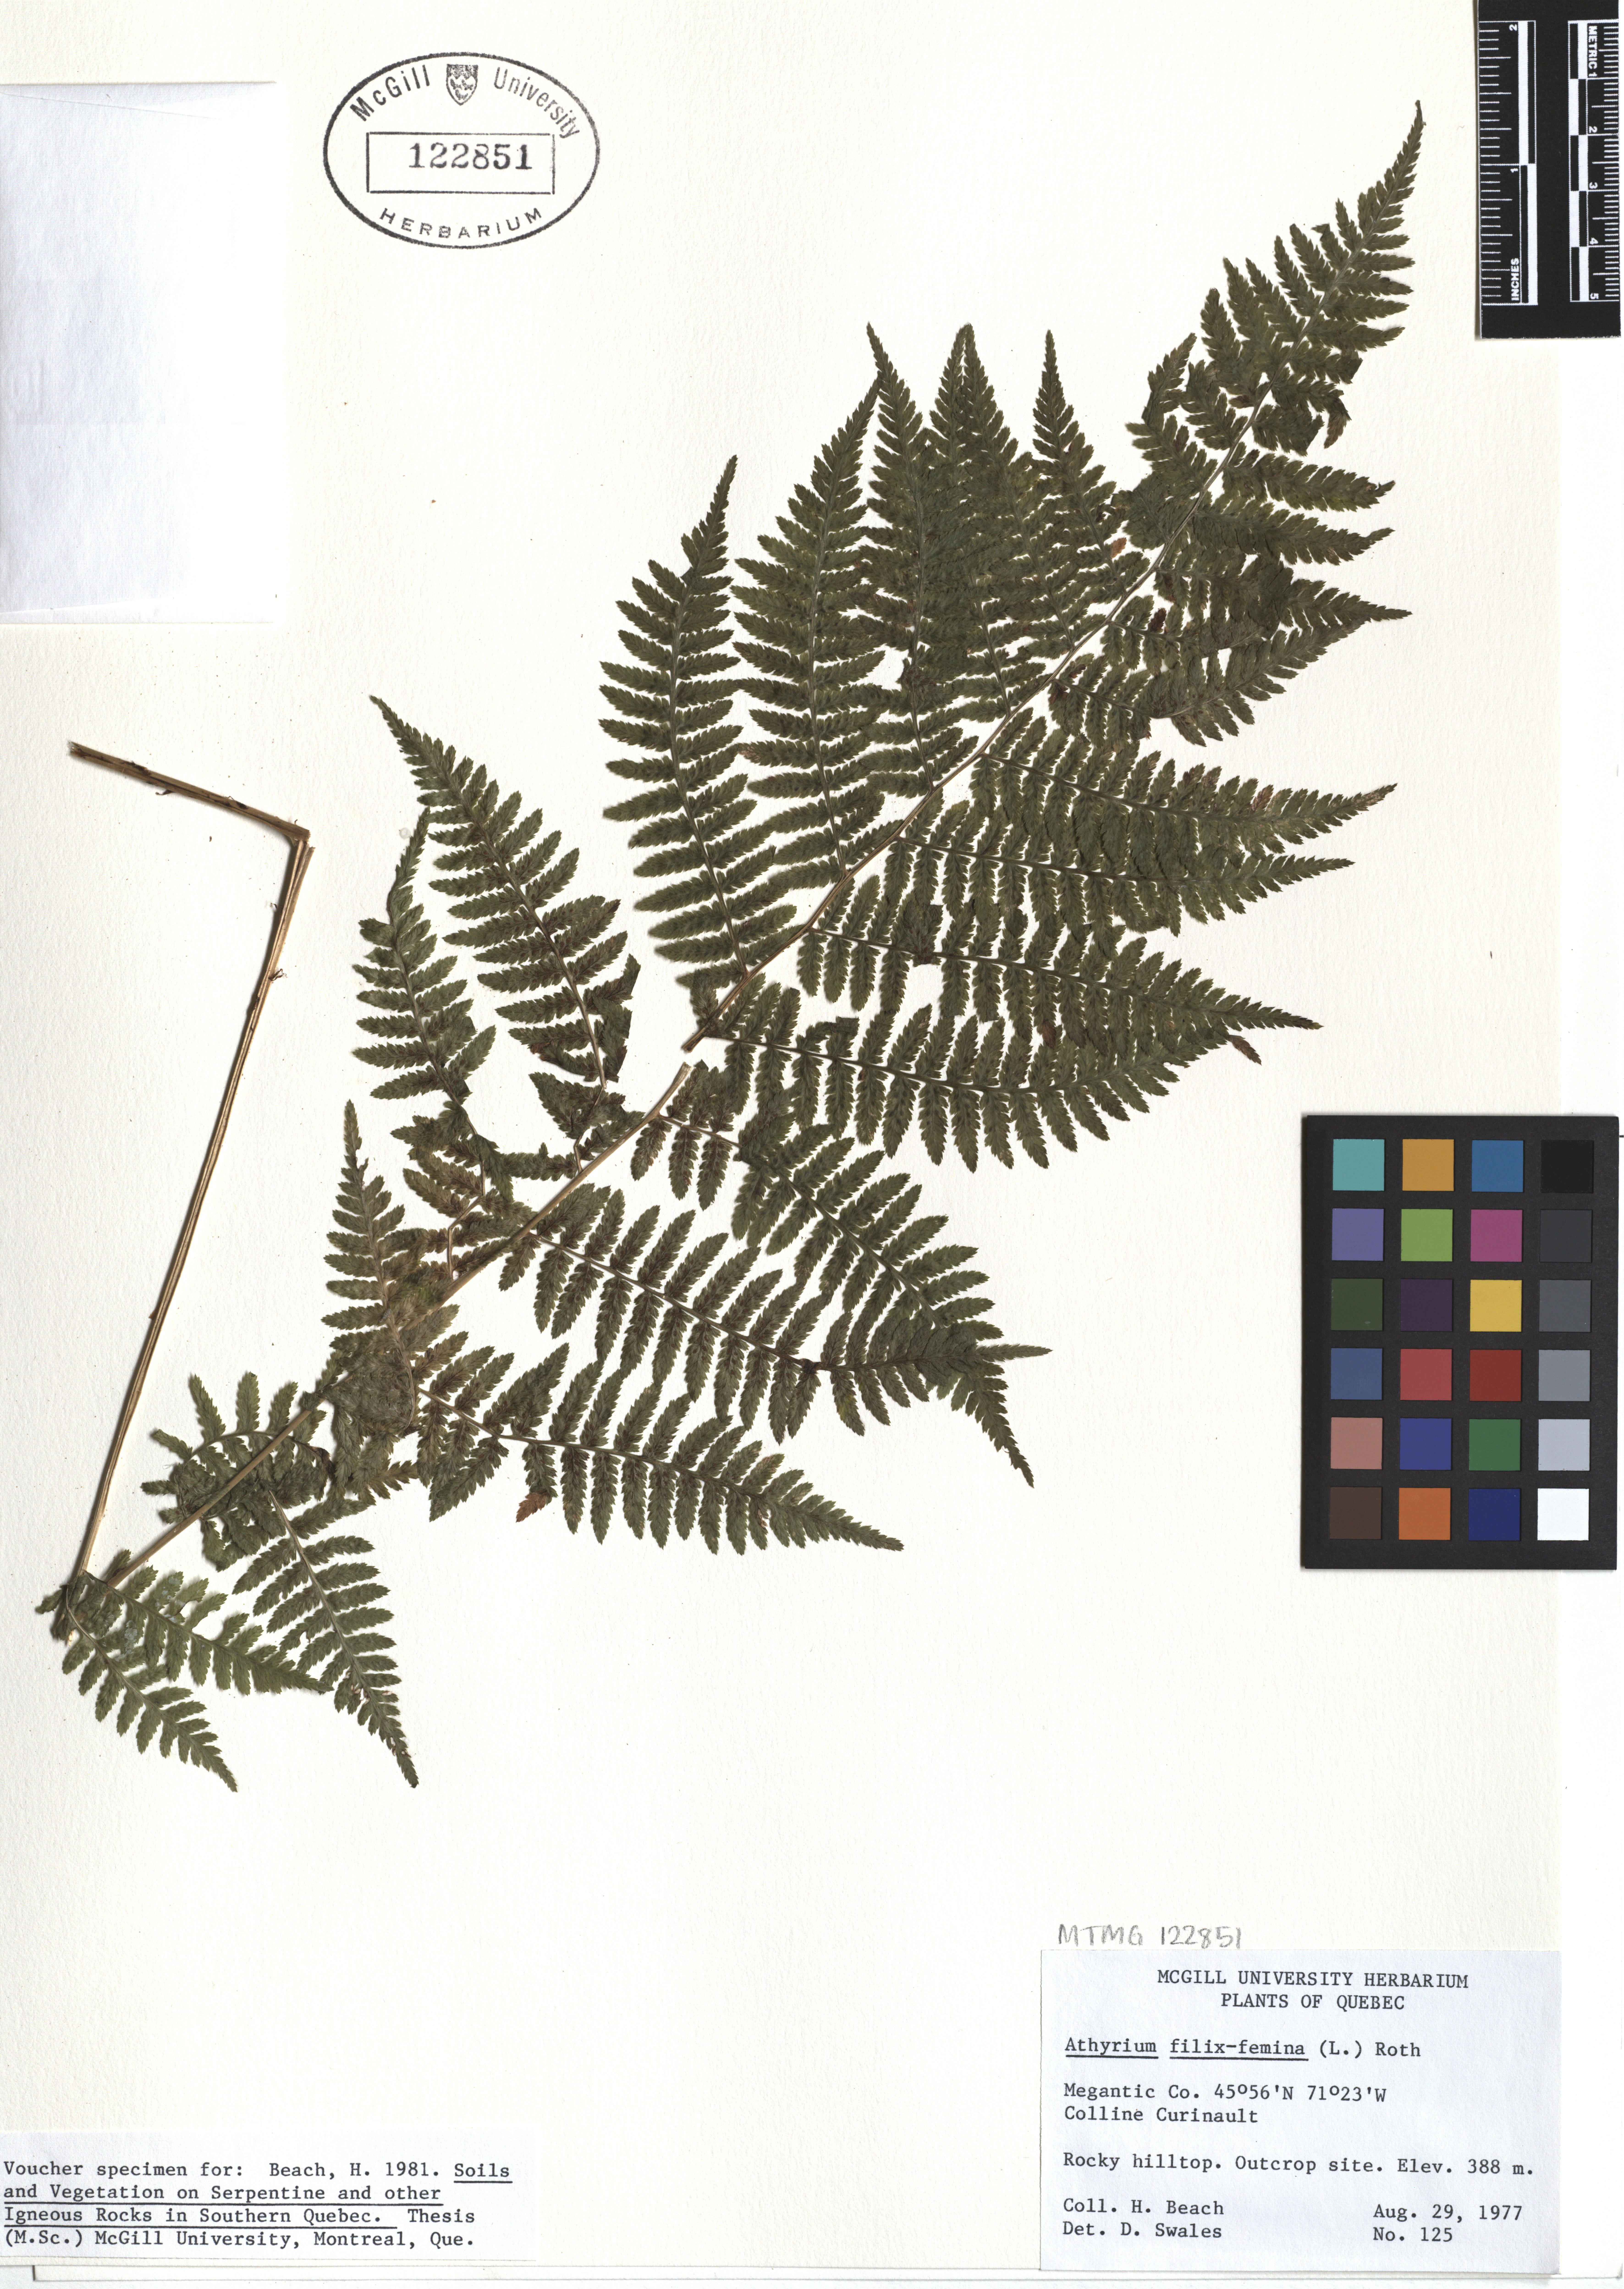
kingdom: Plantae
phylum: Tracheophyta
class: Polypodiopsida
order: Polypodiales
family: Athyriaceae
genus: Athyrium
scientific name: Athyrium filix-femina
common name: Lady fern
